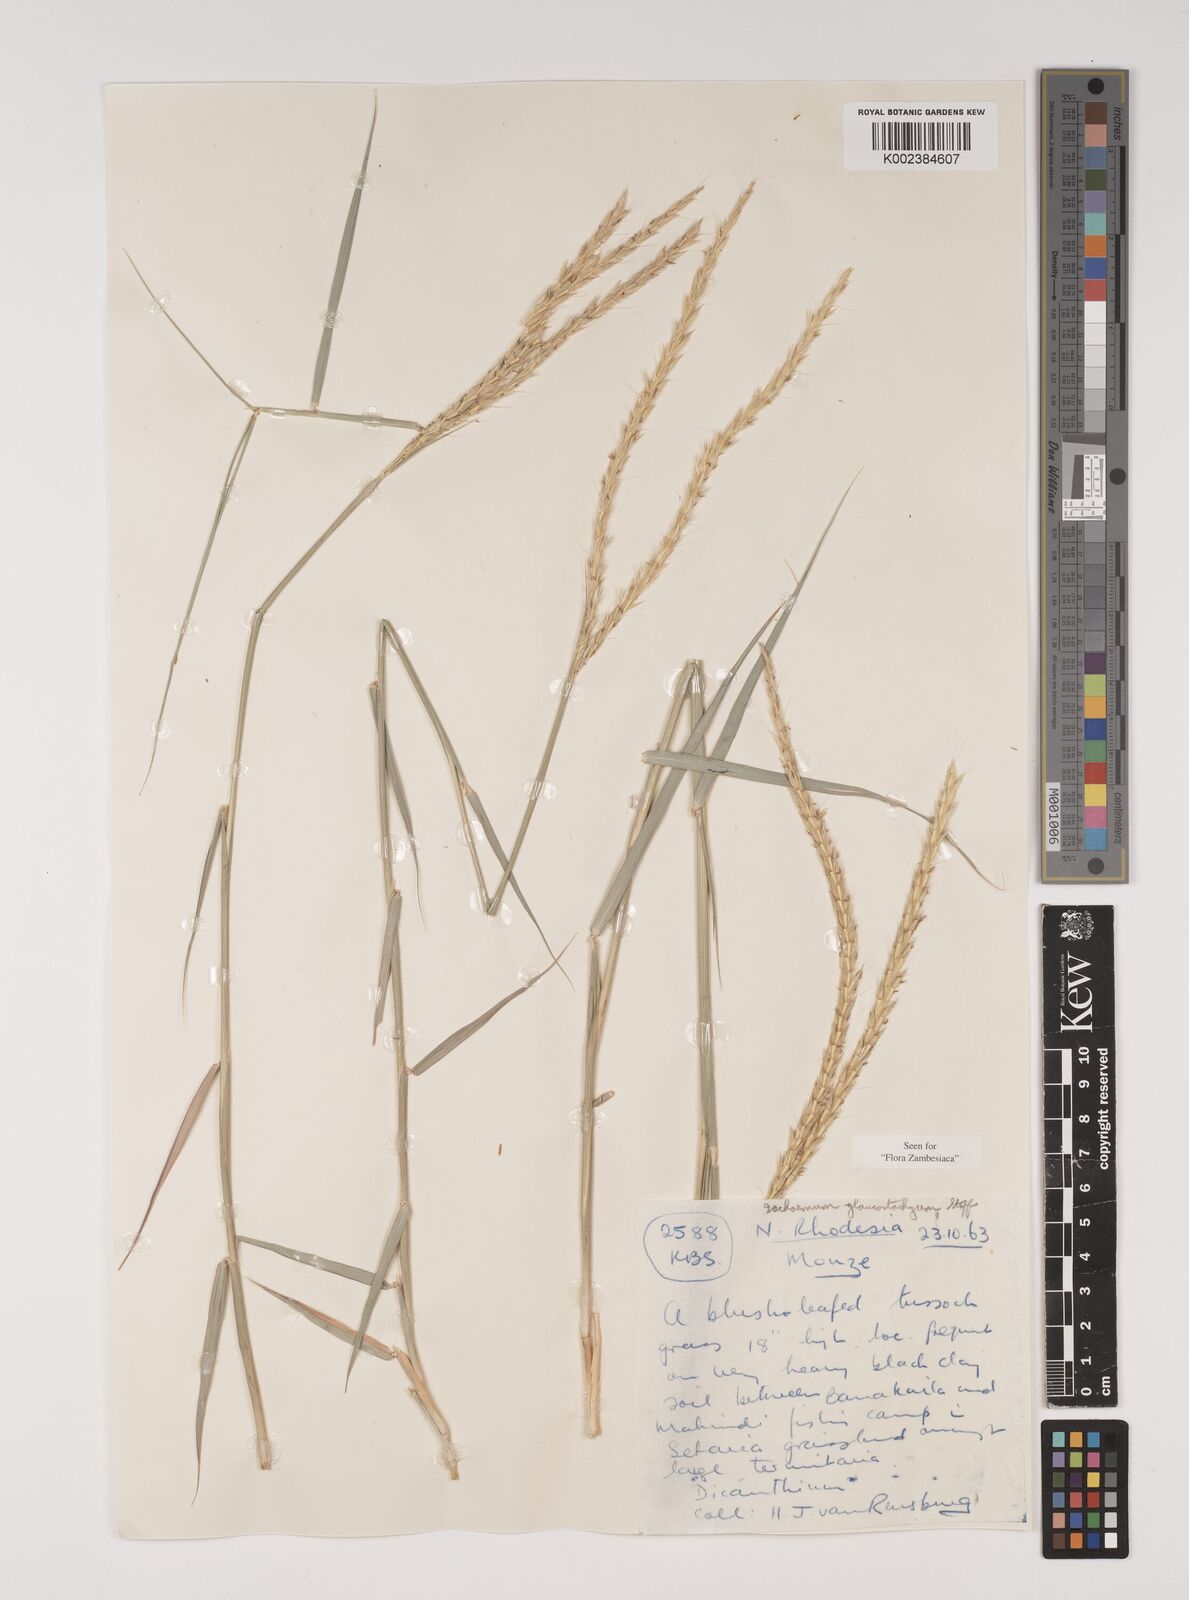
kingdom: Plantae
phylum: Tracheophyta
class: Liliopsida
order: Poales
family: Poaceae
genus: Ischaemum
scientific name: Ischaemum afrum
